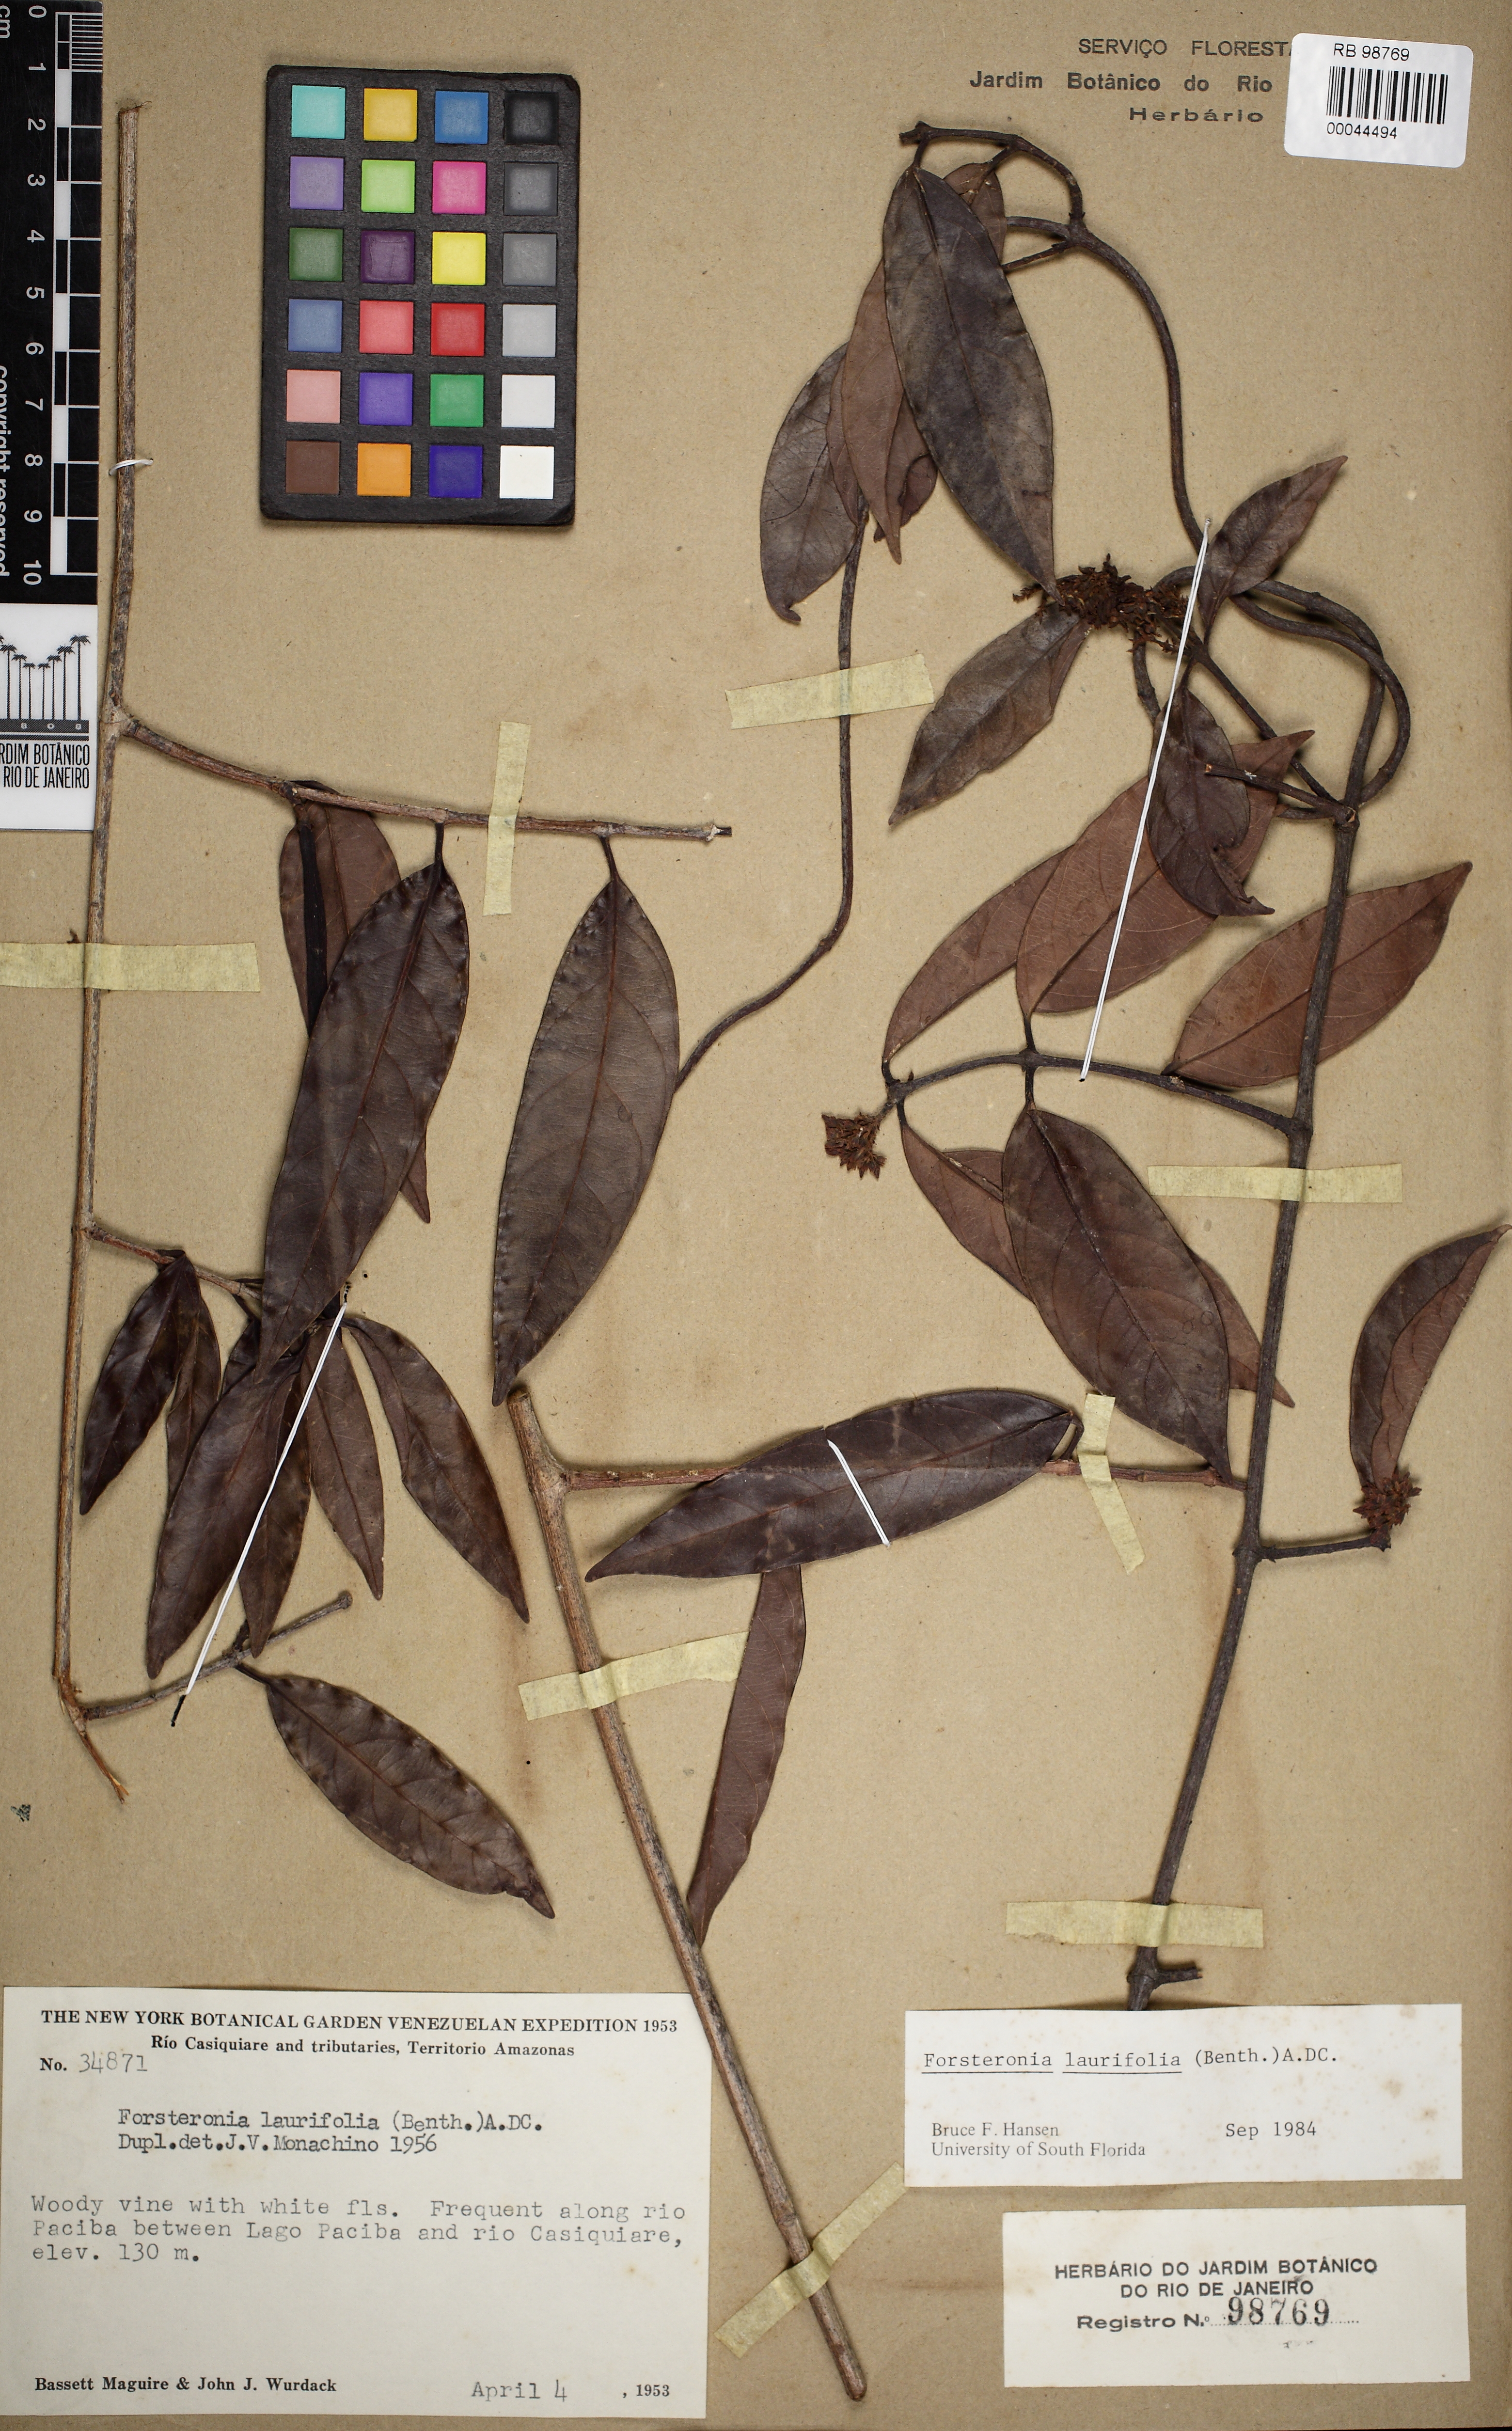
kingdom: Plantae
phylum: Tracheophyta
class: Magnoliopsida
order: Gentianales
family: Apocynaceae
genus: Forsteronia
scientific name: Forsteronia laurifolia
